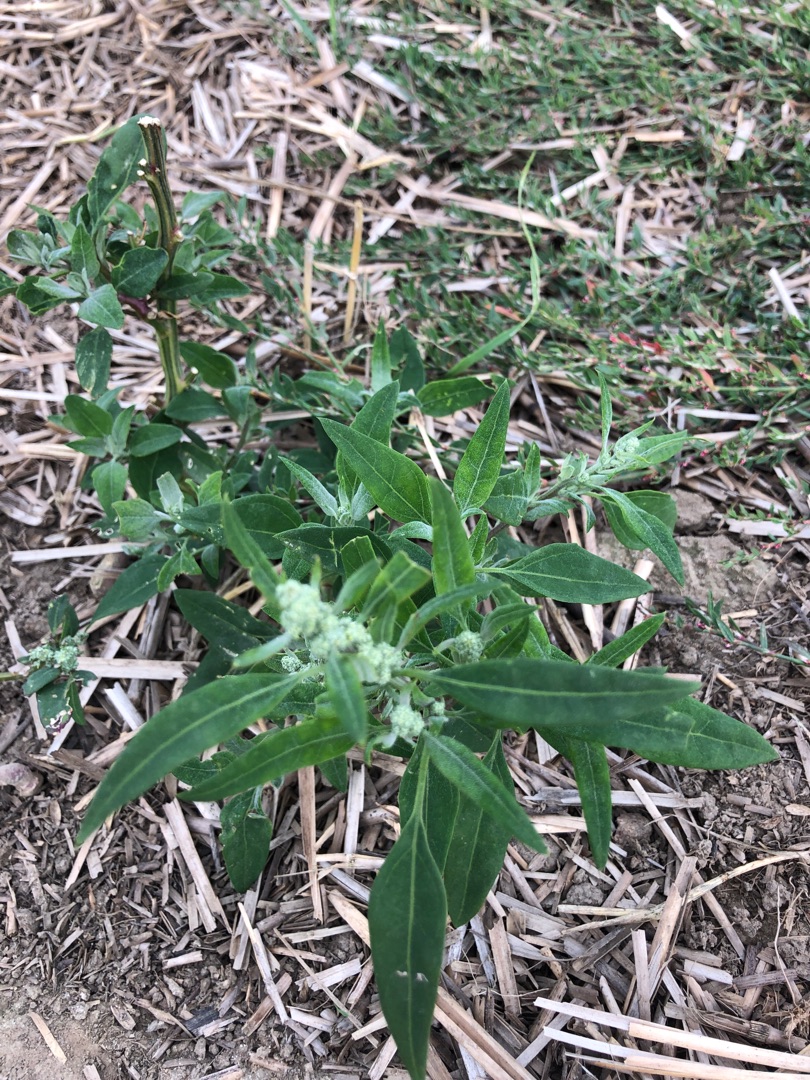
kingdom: Plantae
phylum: Tracheophyta
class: Magnoliopsida
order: Caryophyllales
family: Amaranthaceae
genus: Chenopodium
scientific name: Chenopodium pratericola
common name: Finbladet gåsefod
